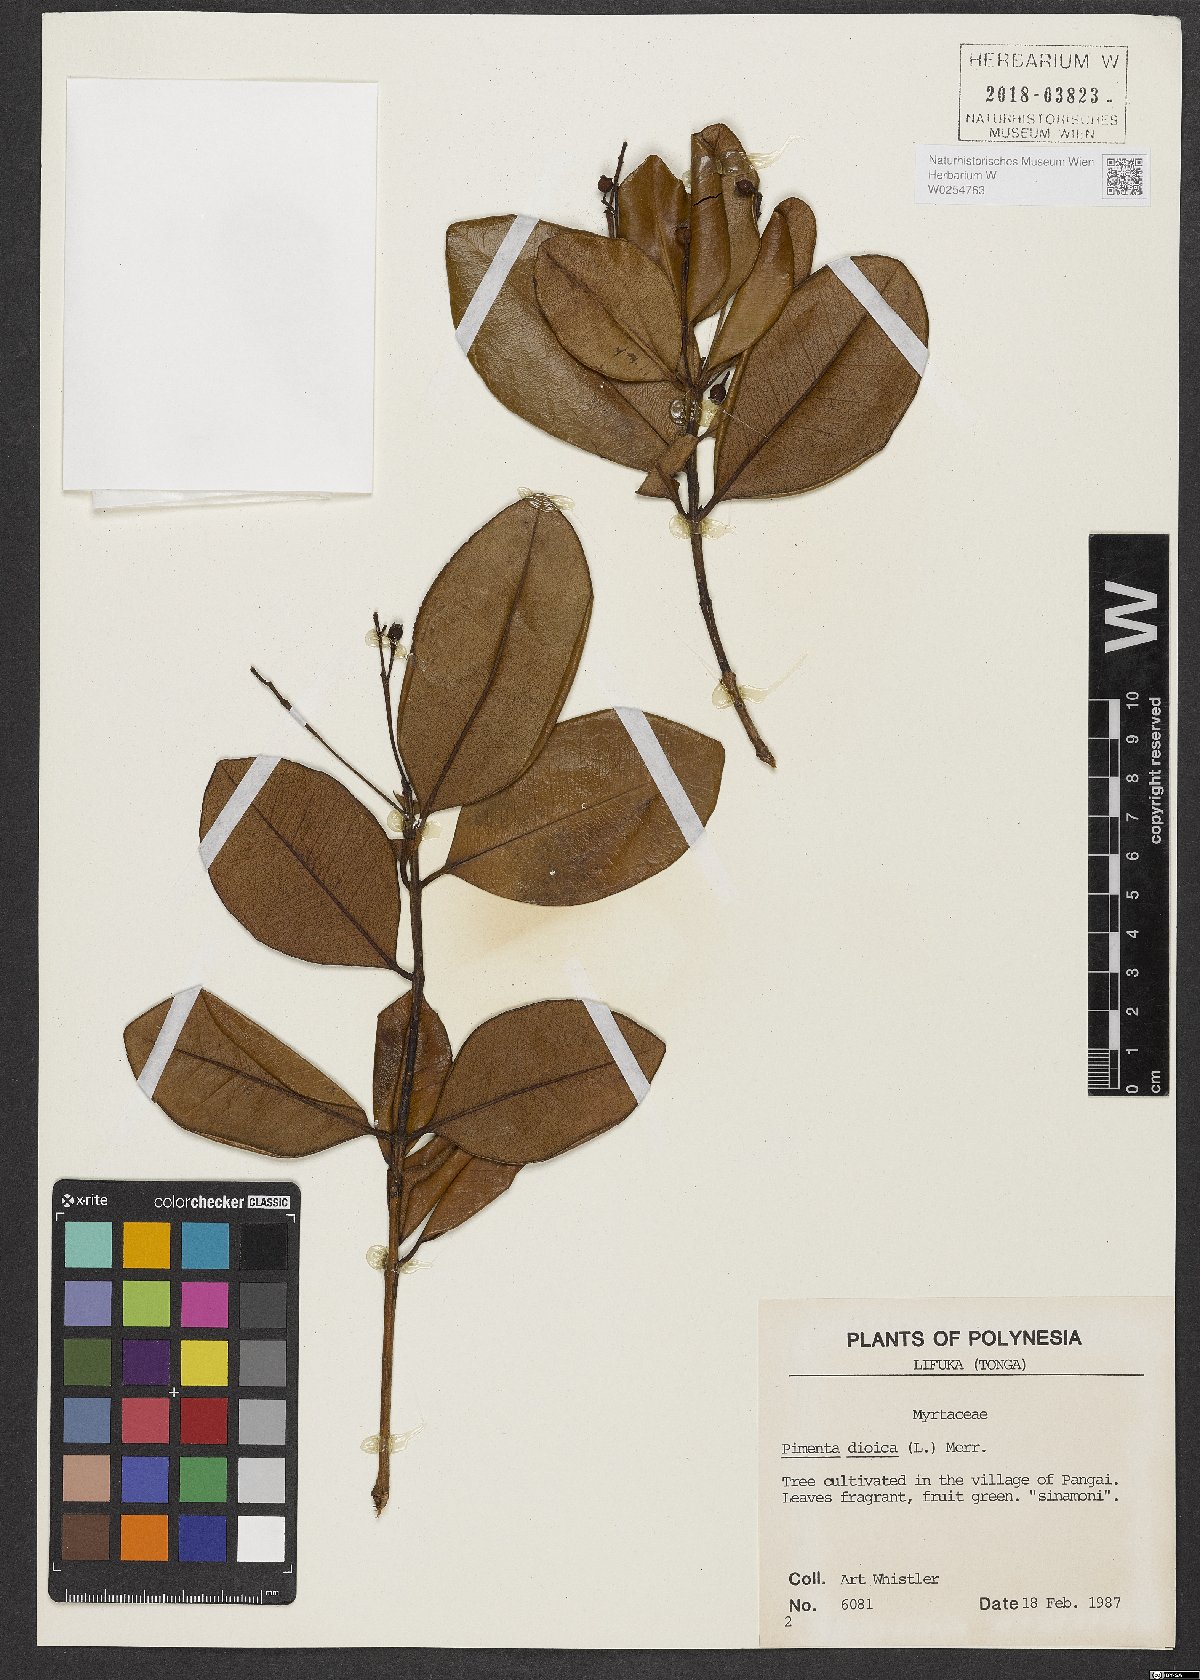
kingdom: Plantae
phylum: Tracheophyta
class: Magnoliopsida
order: Myrtales
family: Myrtaceae
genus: Pimenta
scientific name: Pimenta dioica
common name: Allspice
